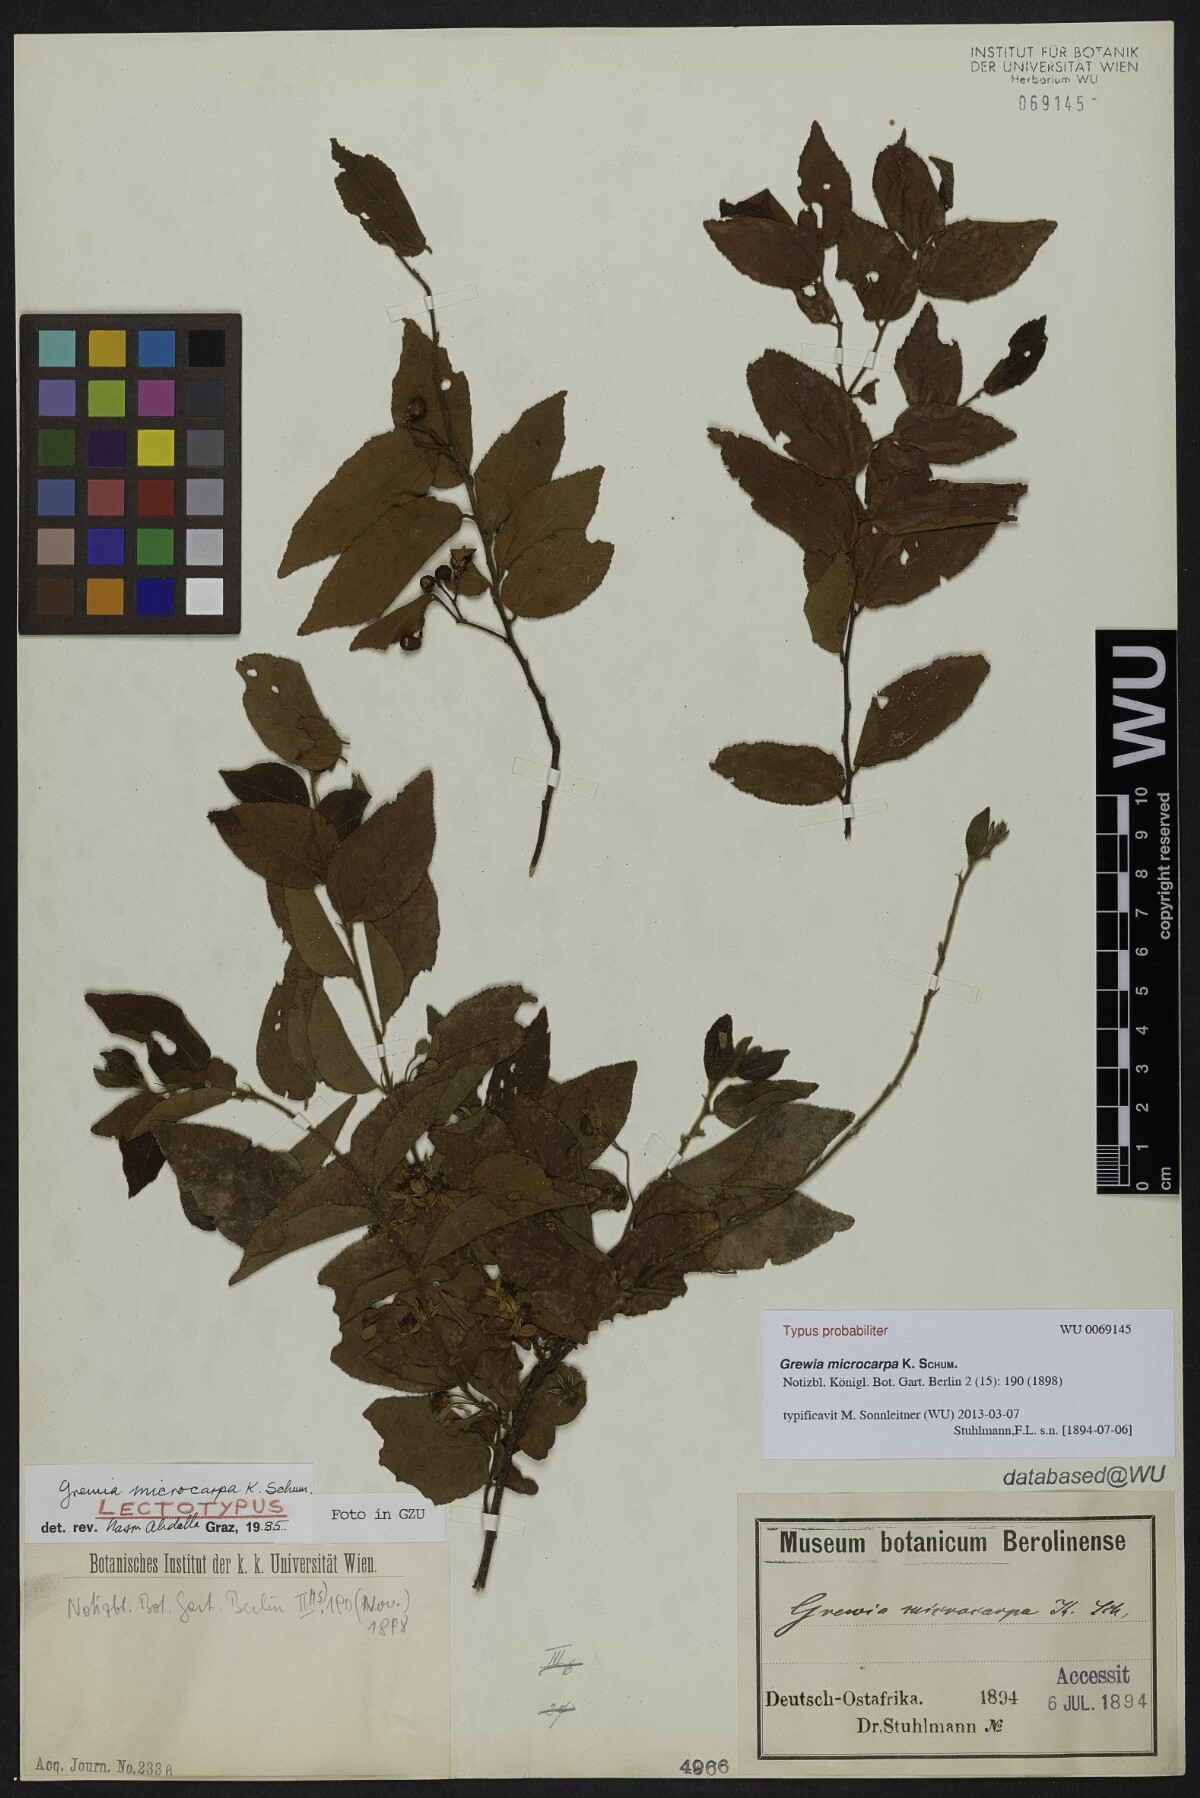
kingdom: Plantae
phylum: Tracheophyta
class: Magnoliopsida
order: Malvales
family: Malvaceae
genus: Grewia
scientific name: Grewia microcarpa
